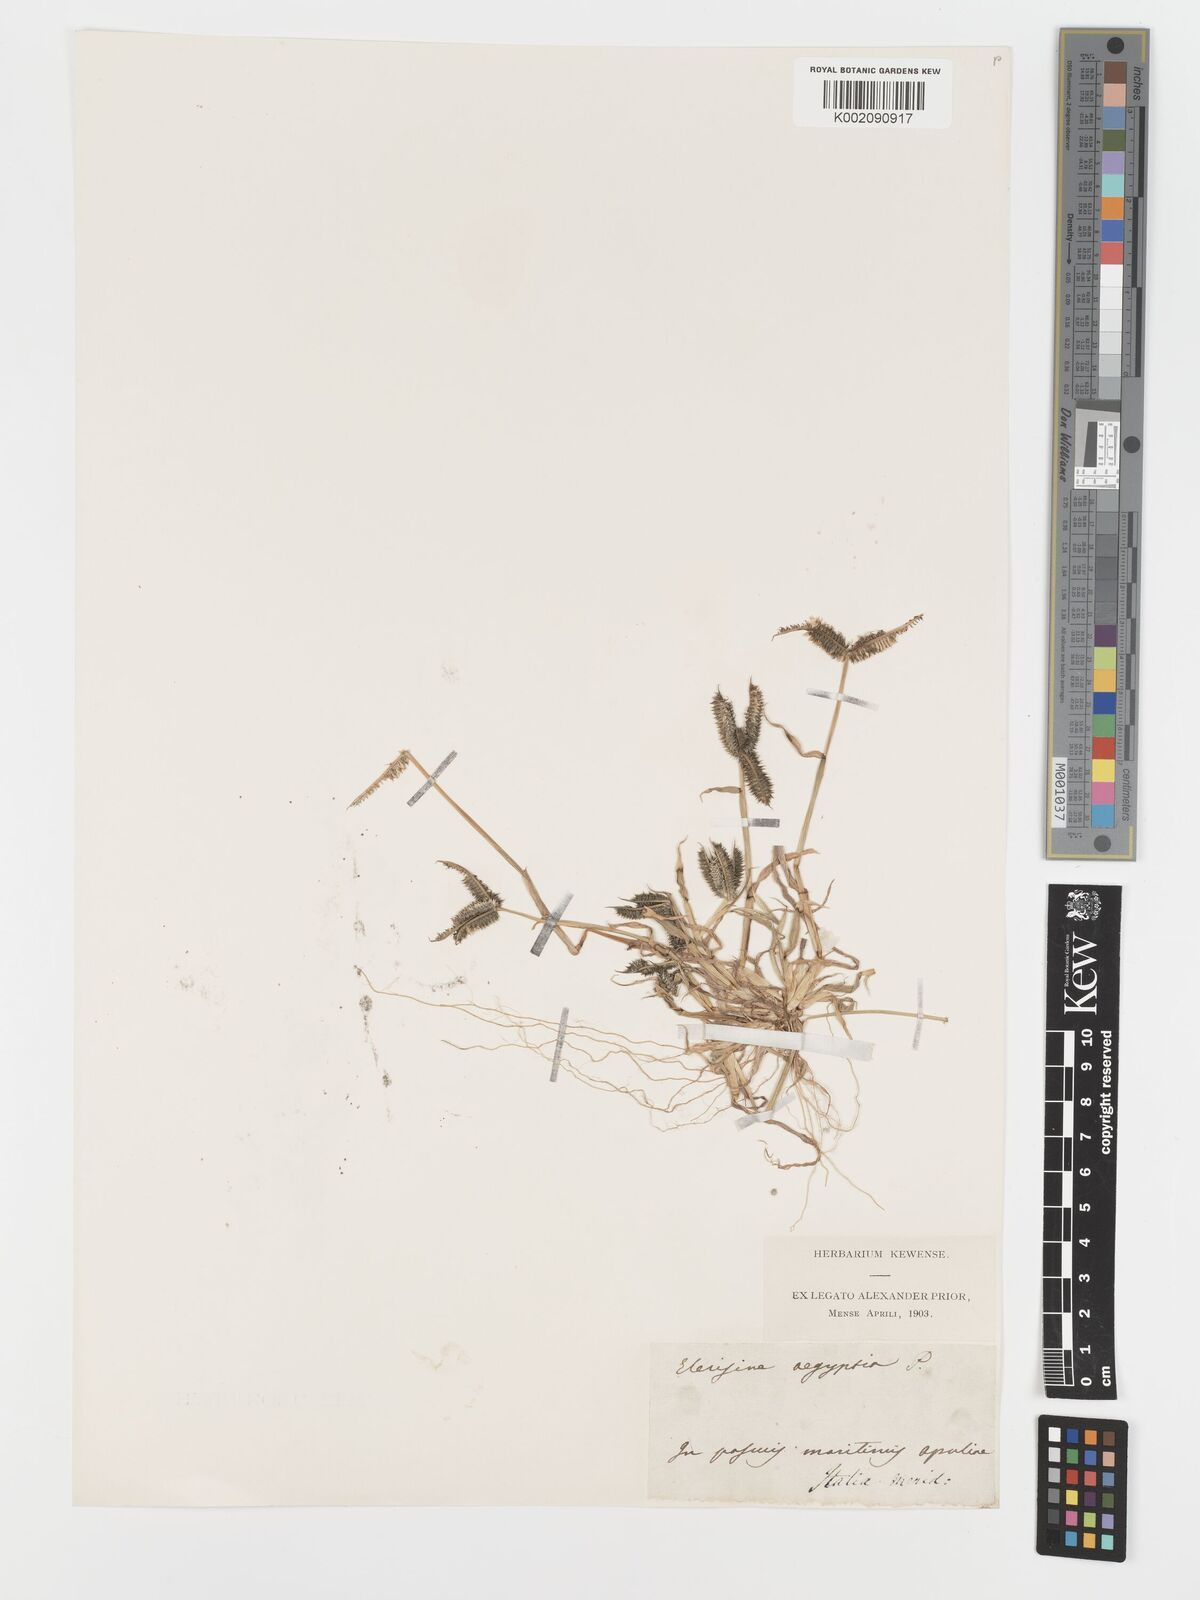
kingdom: Plantae
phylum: Tracheophyta
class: Liliopsida
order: Poales
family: Poaceae
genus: Dactyloctenium
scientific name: Dactyloctenium aegyptium
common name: Egyptian grass
